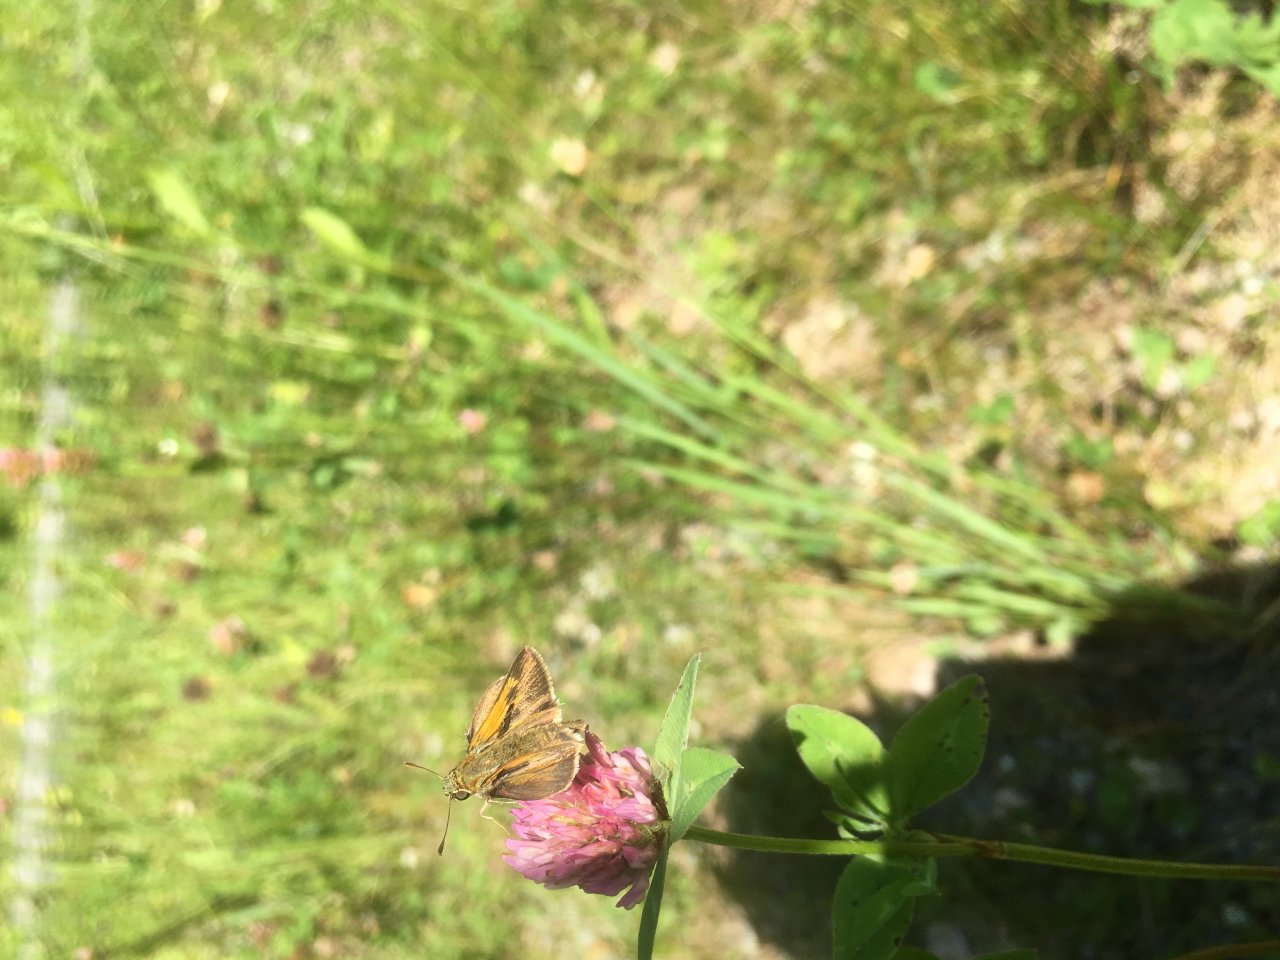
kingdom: Animalia
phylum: Arthropoda
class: Insecta
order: Lepidoptera
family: Hesperiidae
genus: Polites
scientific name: Polites
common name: Long Dash Skipper
